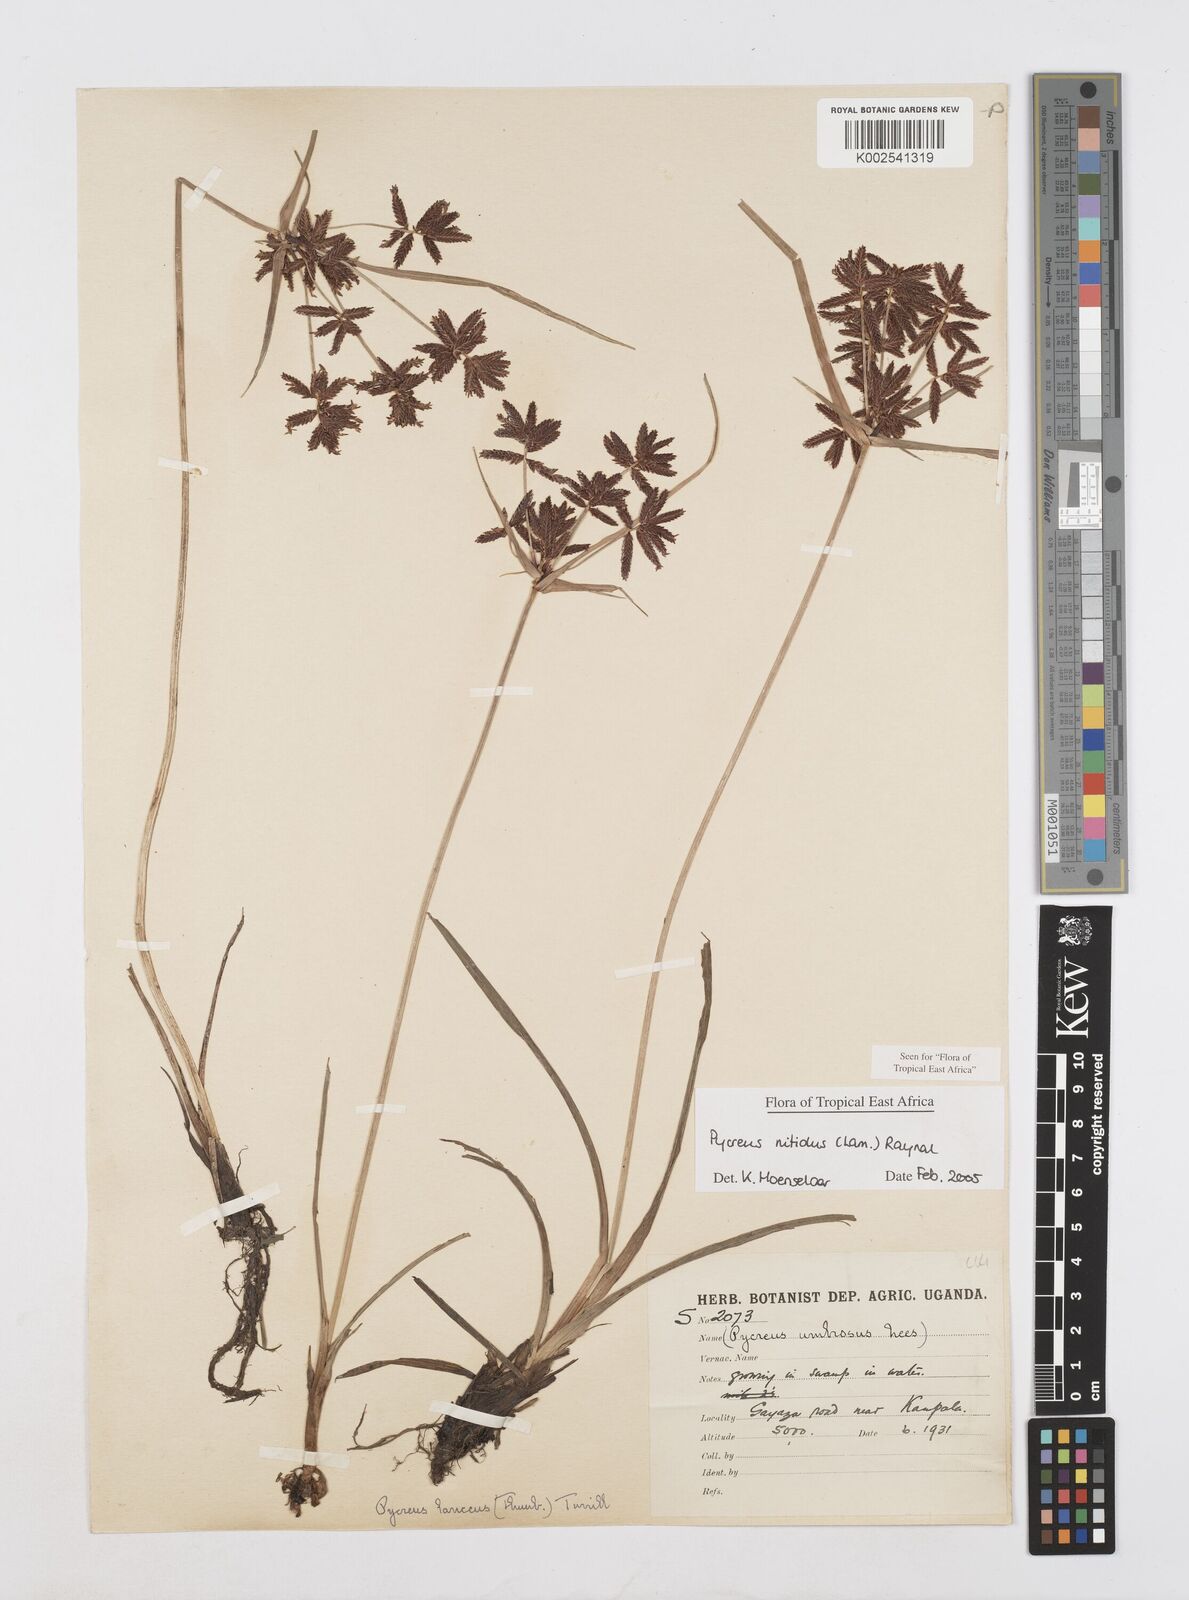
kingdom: Plantae
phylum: Tracheophyta
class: Liliopsida
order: Poales
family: Cyperaceae
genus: Cyperus
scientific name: Cyperus nitidus
